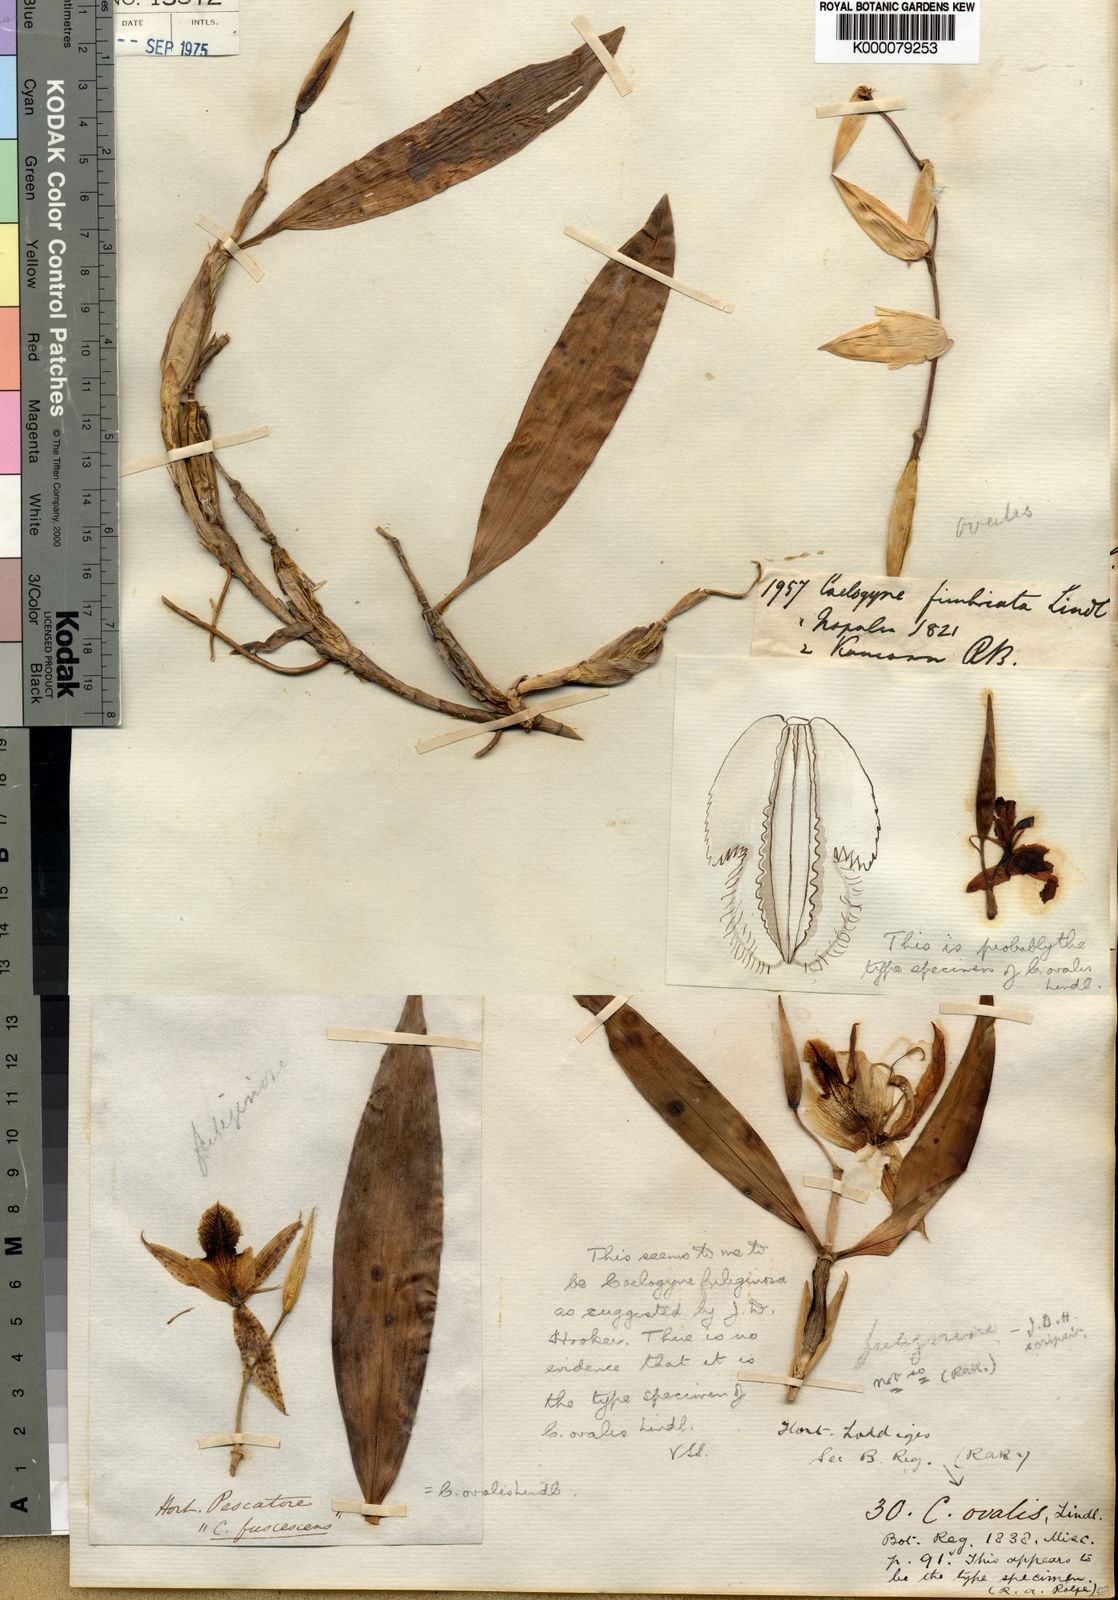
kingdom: Plantae
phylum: Tracheophyta
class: Liliopsida
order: Asparagales
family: Orchidaceae
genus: Coelogyne
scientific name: Coelogyne ovalis
